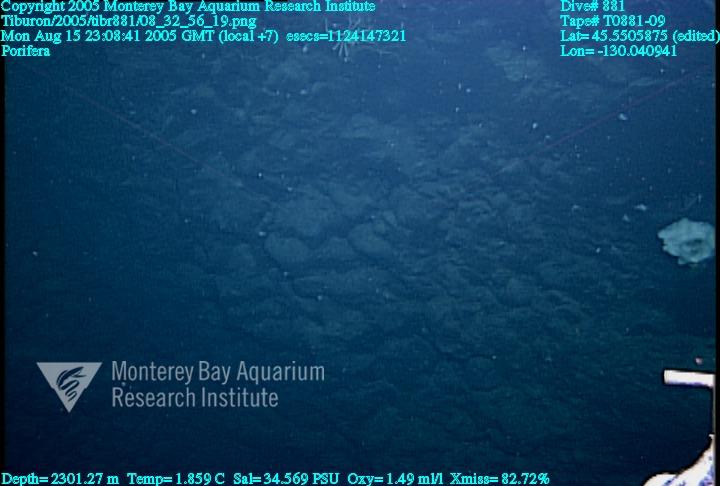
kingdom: Animalia
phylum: Porifera
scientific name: Porifera
